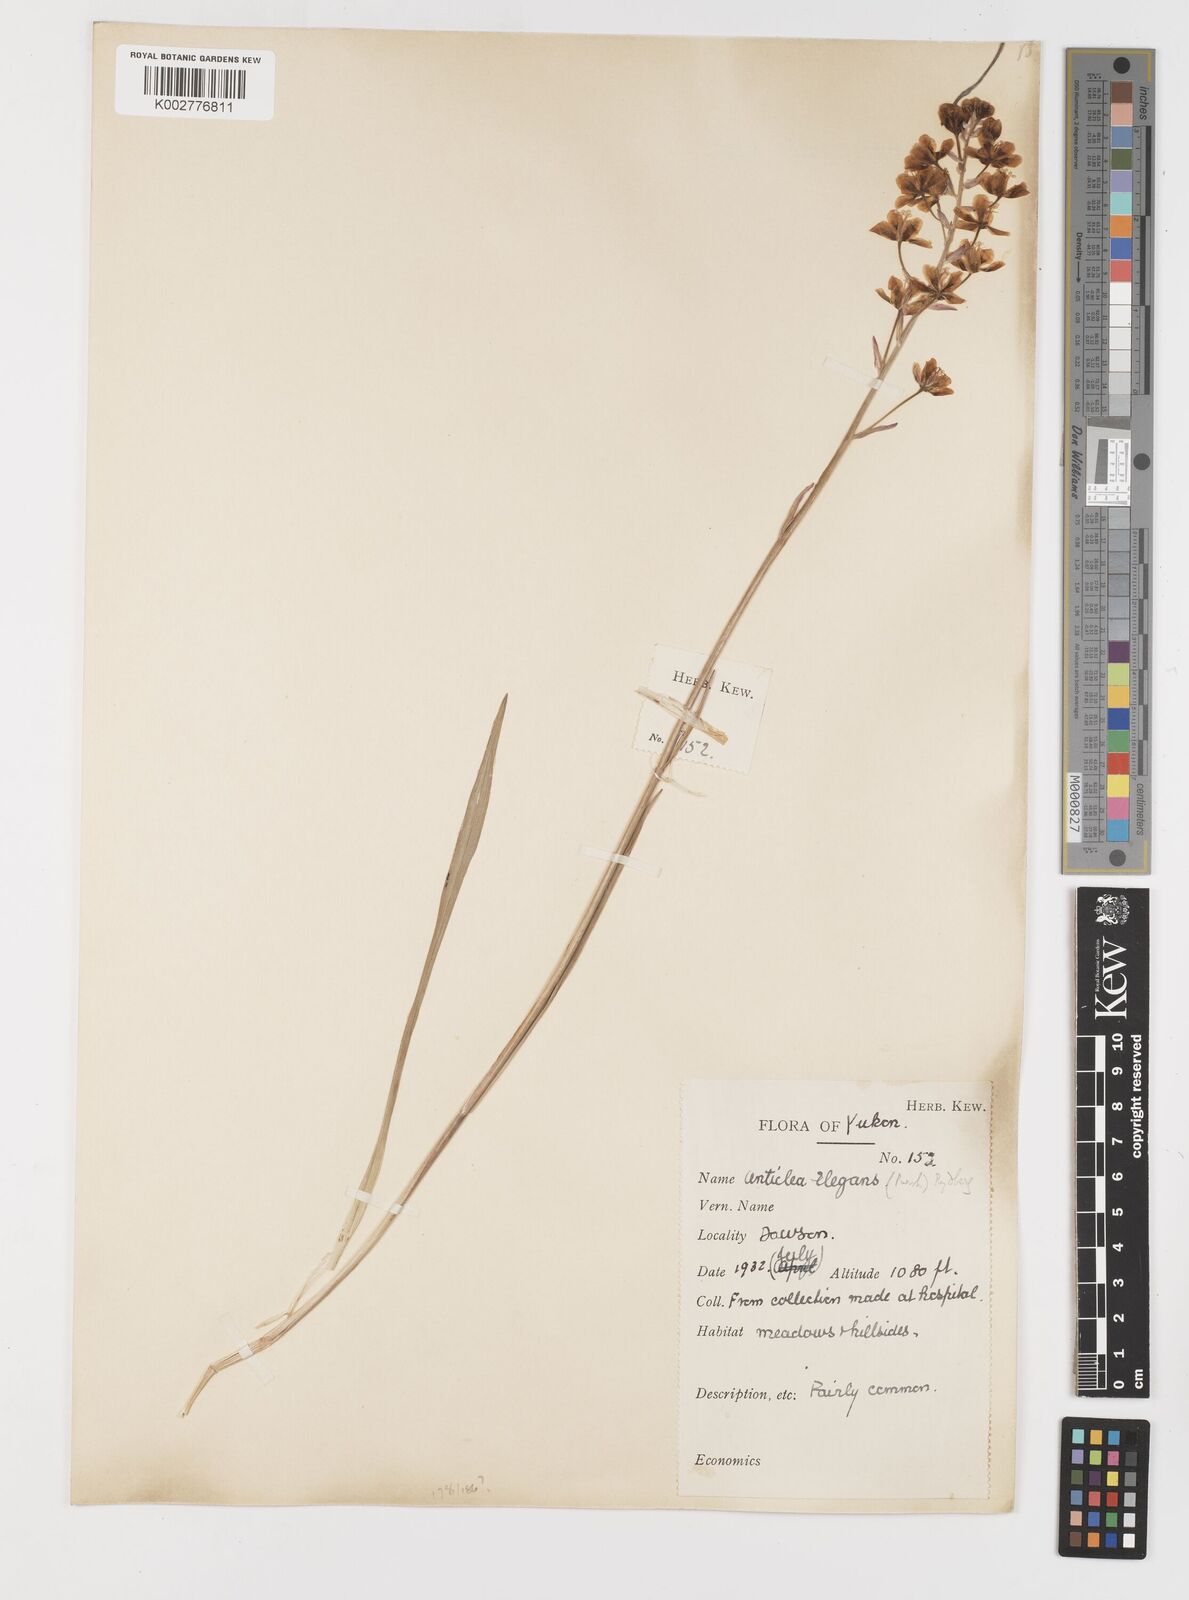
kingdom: Plantae
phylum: Tracheophyta
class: Liliopsida
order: Liliales
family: Melanthiaceae
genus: Anticlea
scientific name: Anticlea elegans
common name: Mountain death camas
